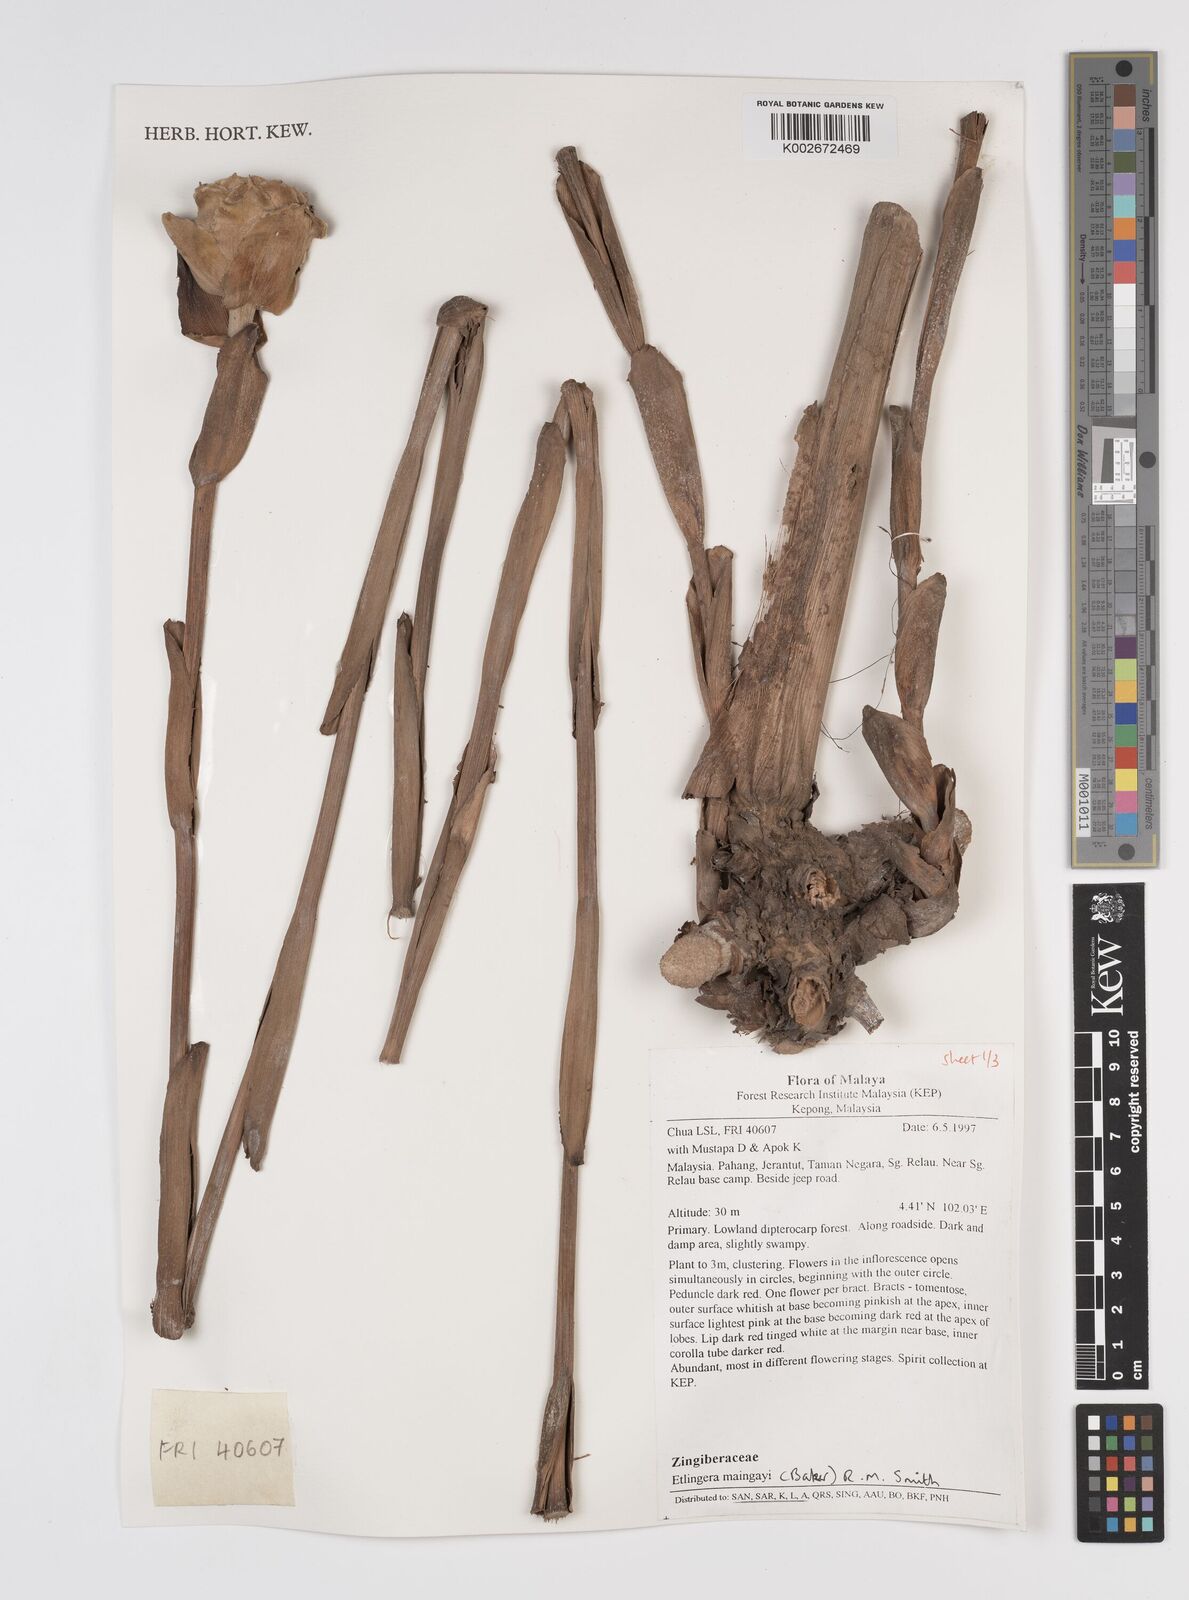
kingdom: Plantae
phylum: Tracheophyta
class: Liliopsida
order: Zingiberales
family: Zingiberaceae
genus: Etlingera
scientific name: Etlingera maingayi
